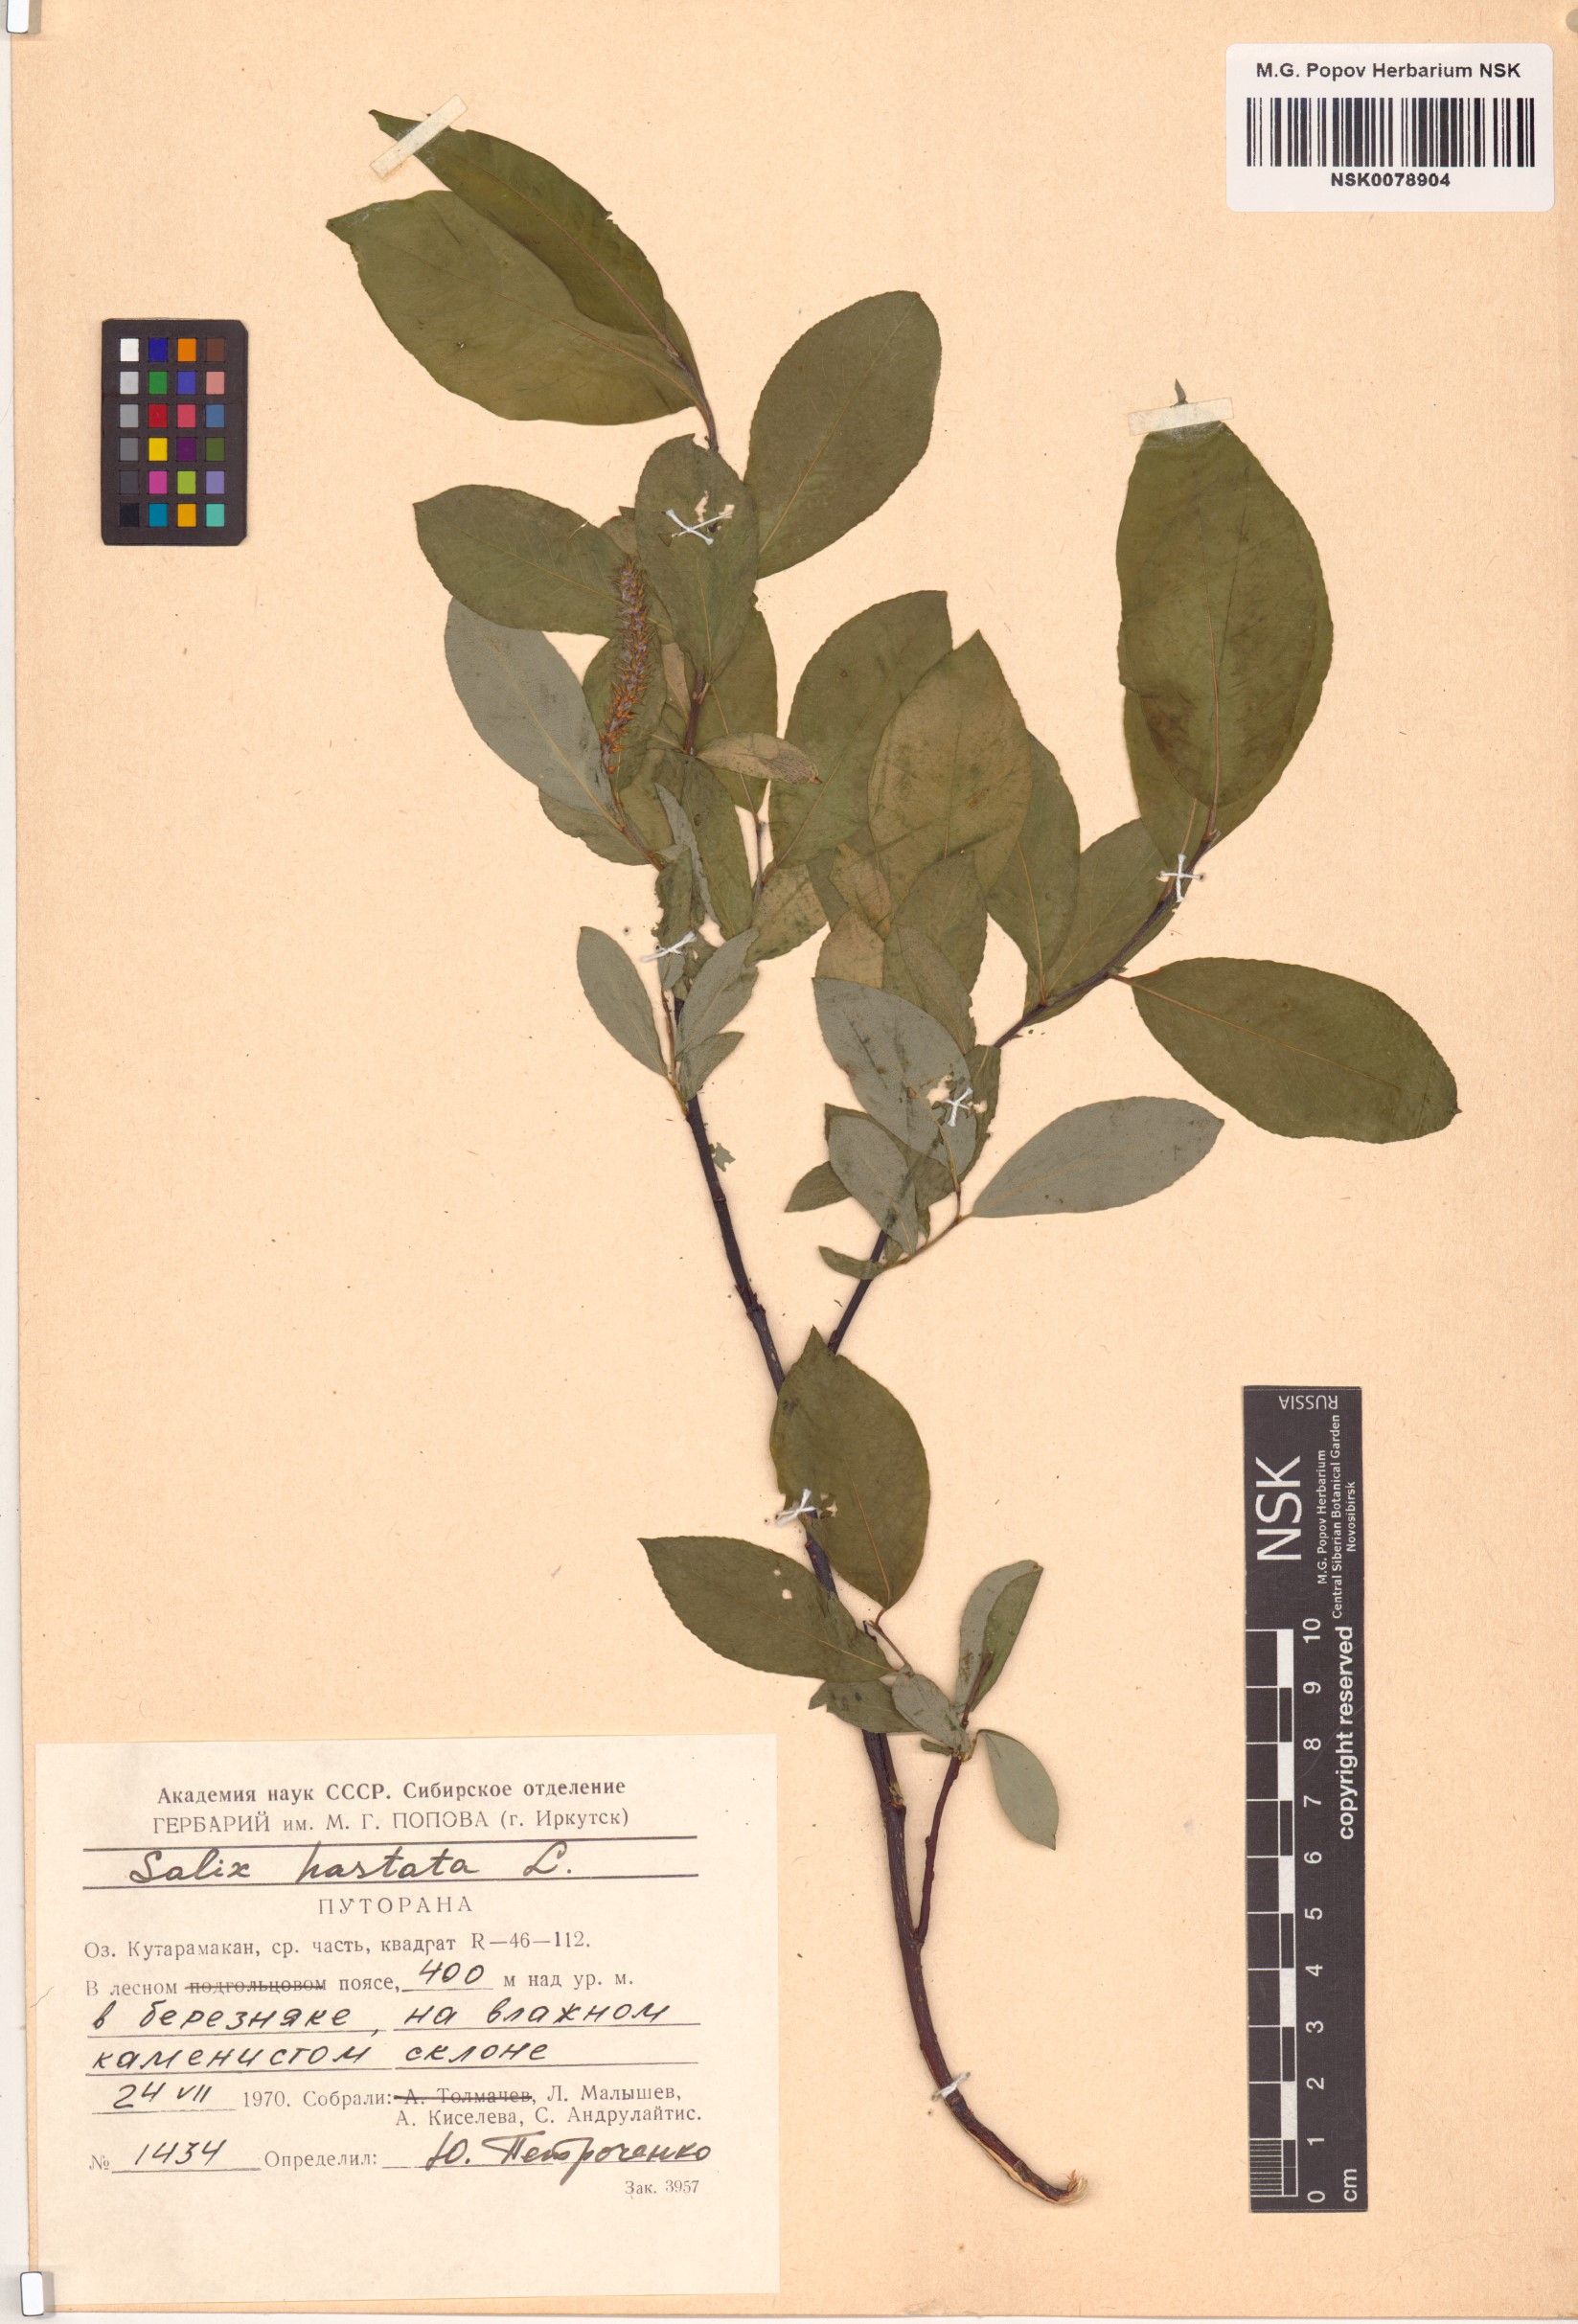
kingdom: Plantae
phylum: Tracheophyta
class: Magnoliopsida
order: Malpighiales
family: Salicaceae
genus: Salix
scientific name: Salix hastata
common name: Halberd willow
